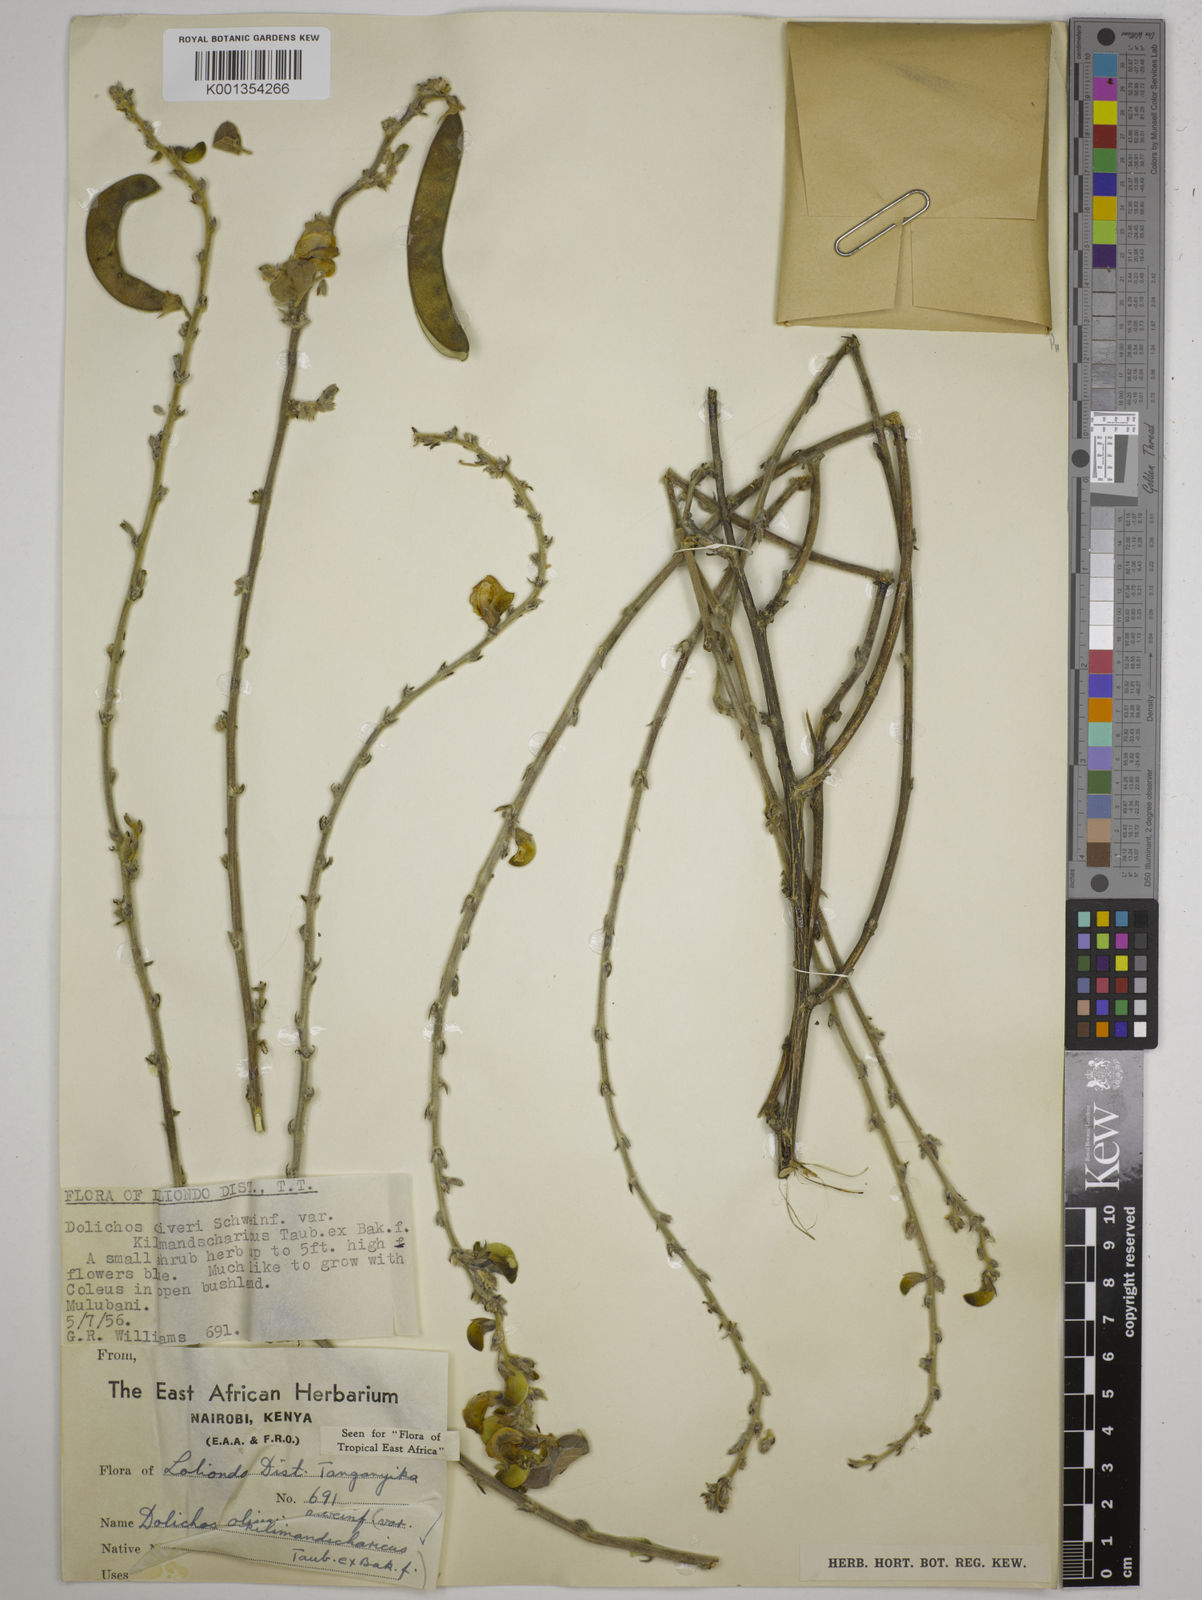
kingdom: Plantae
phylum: Tracheophyta
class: Magnoliopsida
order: Fabales
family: Fabaceae
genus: Dolichos
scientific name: Dolichos
